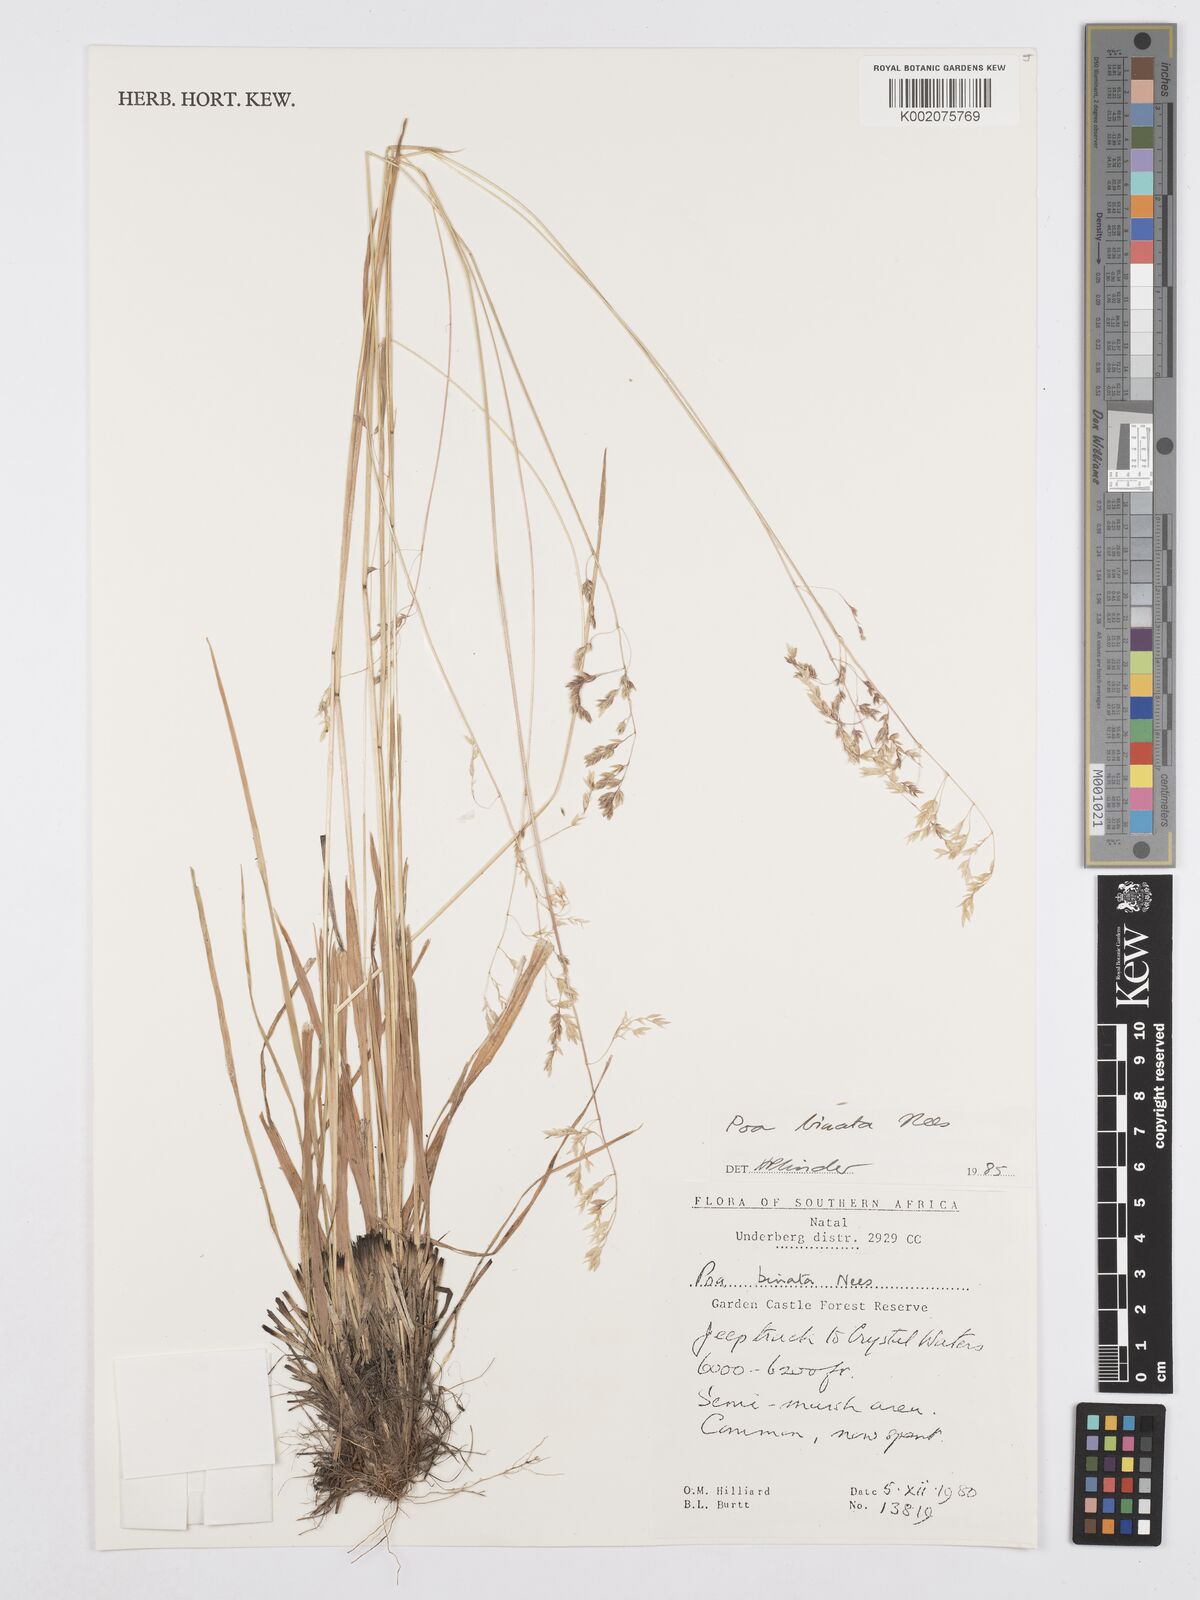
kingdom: Plantae
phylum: Tracheophyta
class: Liliopsida
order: Poales
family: Poaceae
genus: Poa
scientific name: Poa binata
